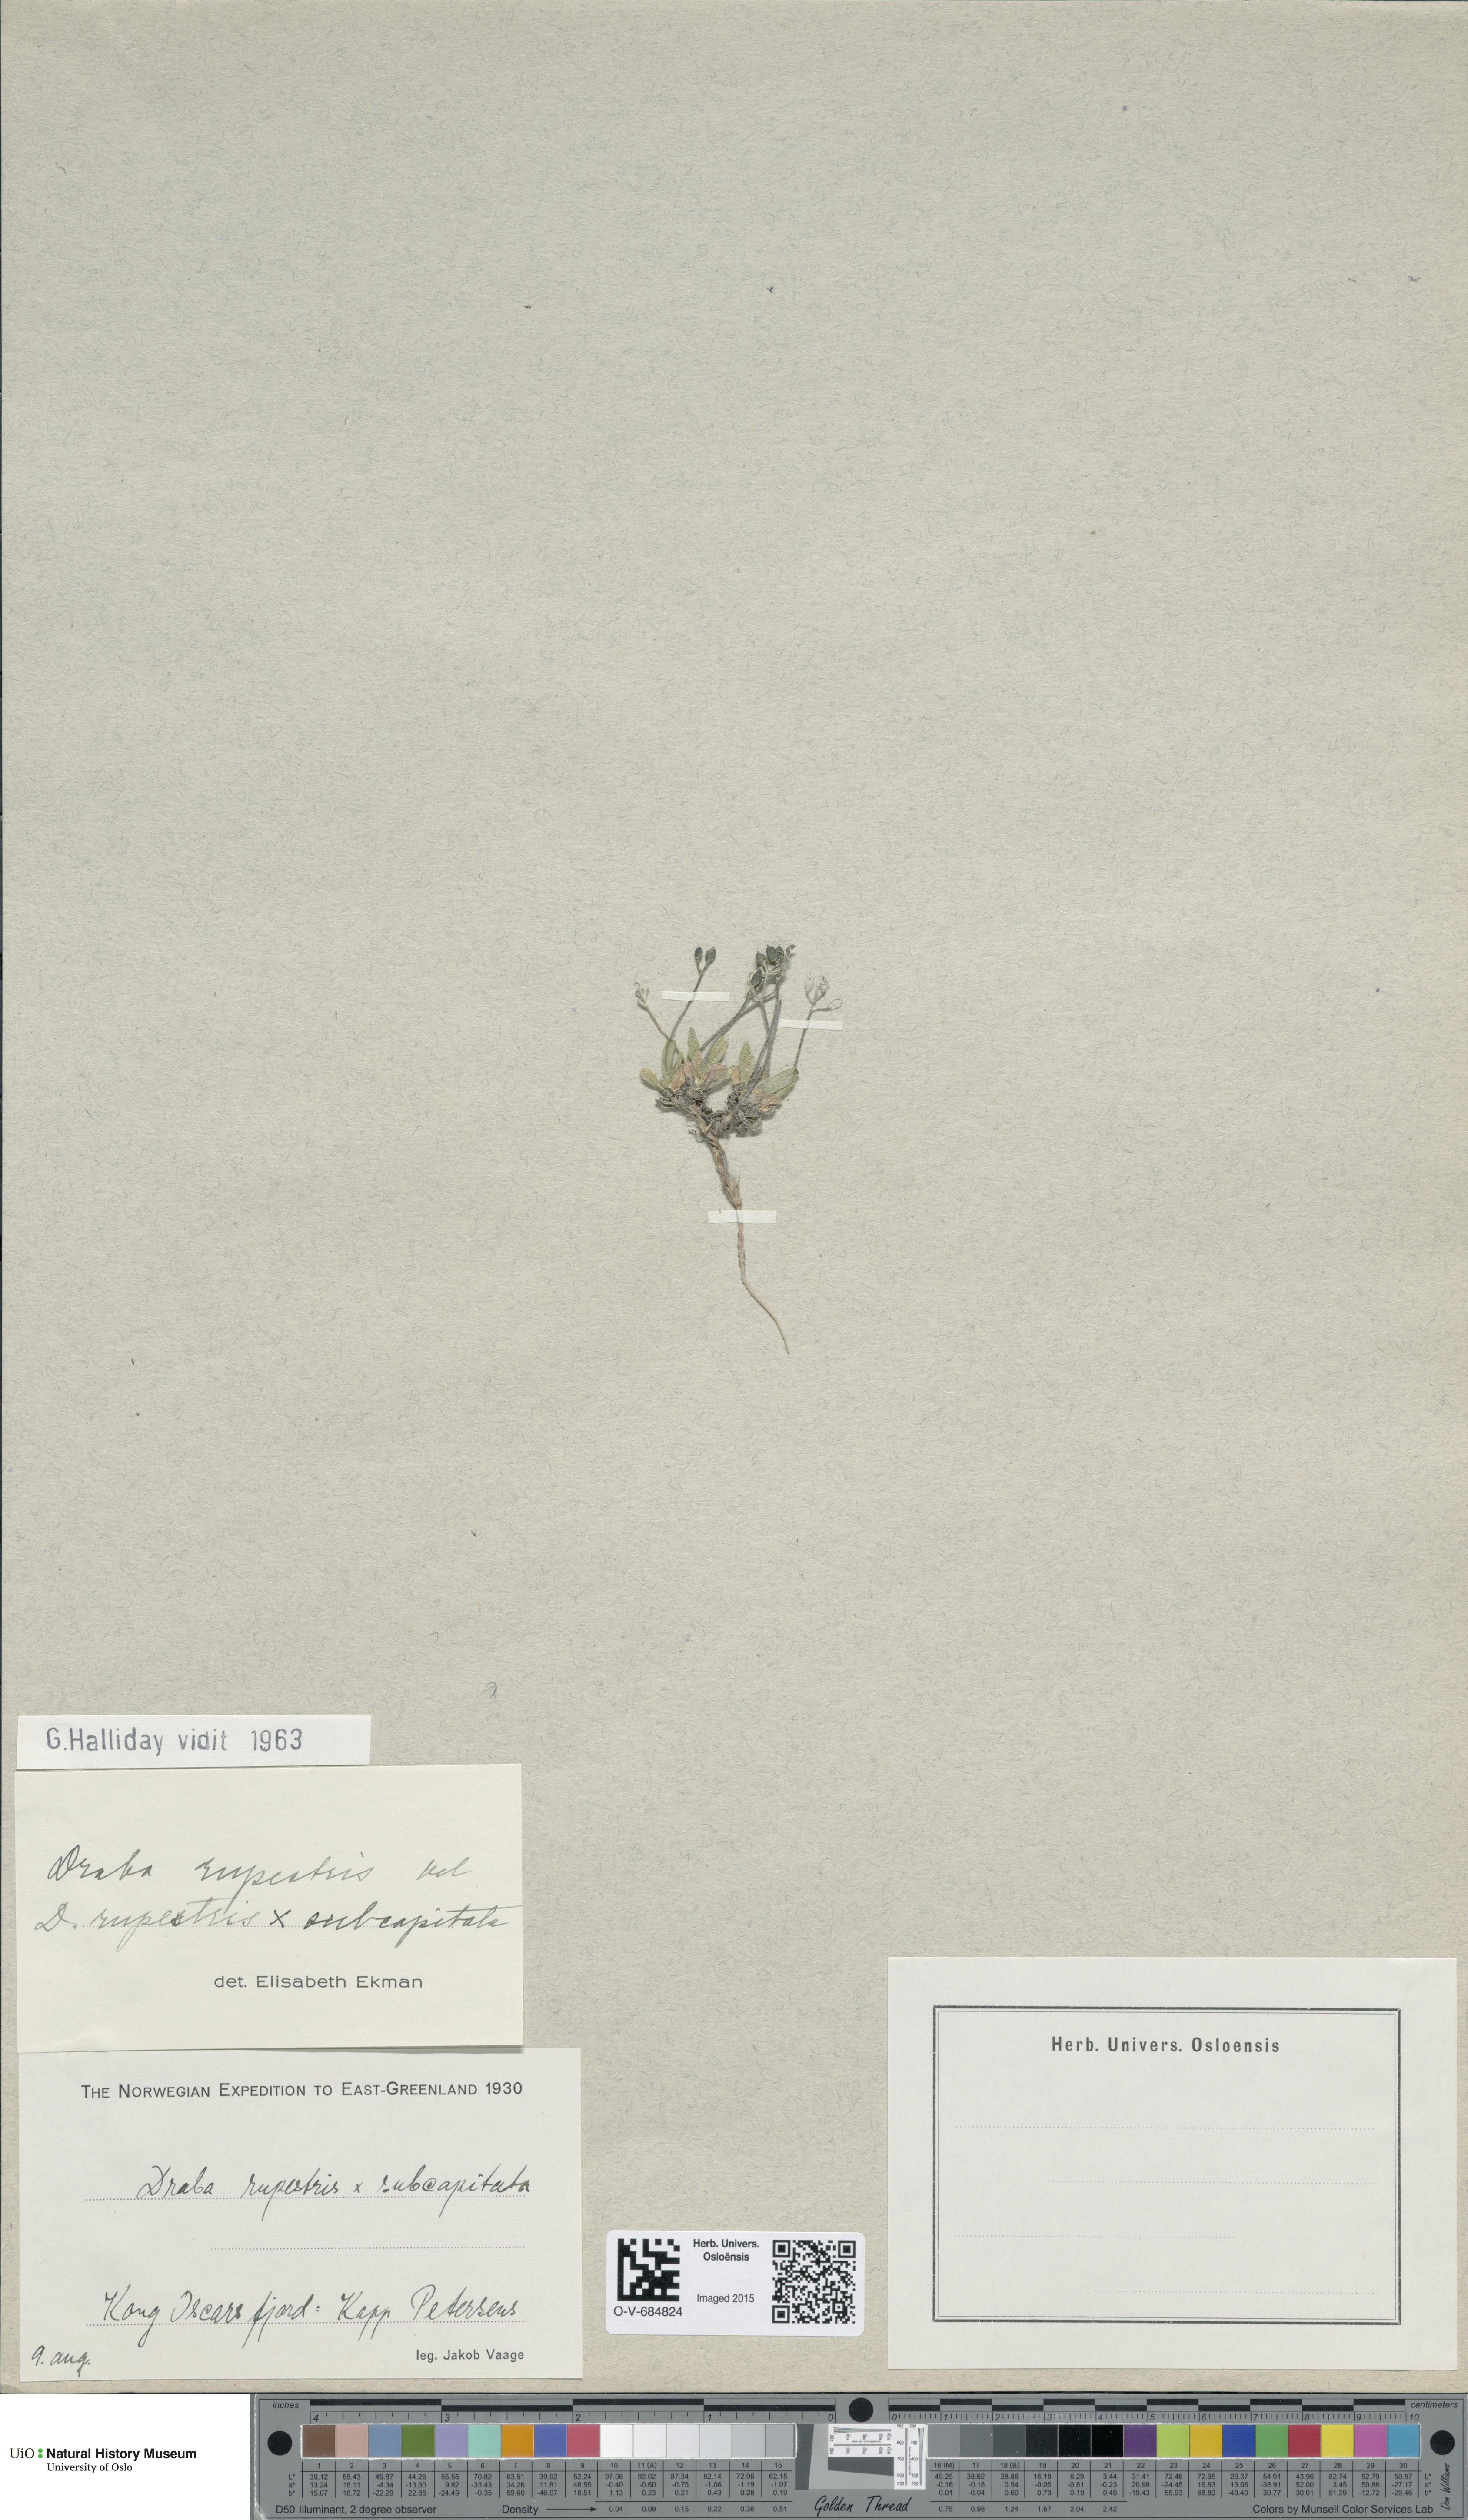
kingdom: Plantae
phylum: Tracheophyta
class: Magnoliopsida
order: Brassicales
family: Brassicaceae
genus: Draba
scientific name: Draba
